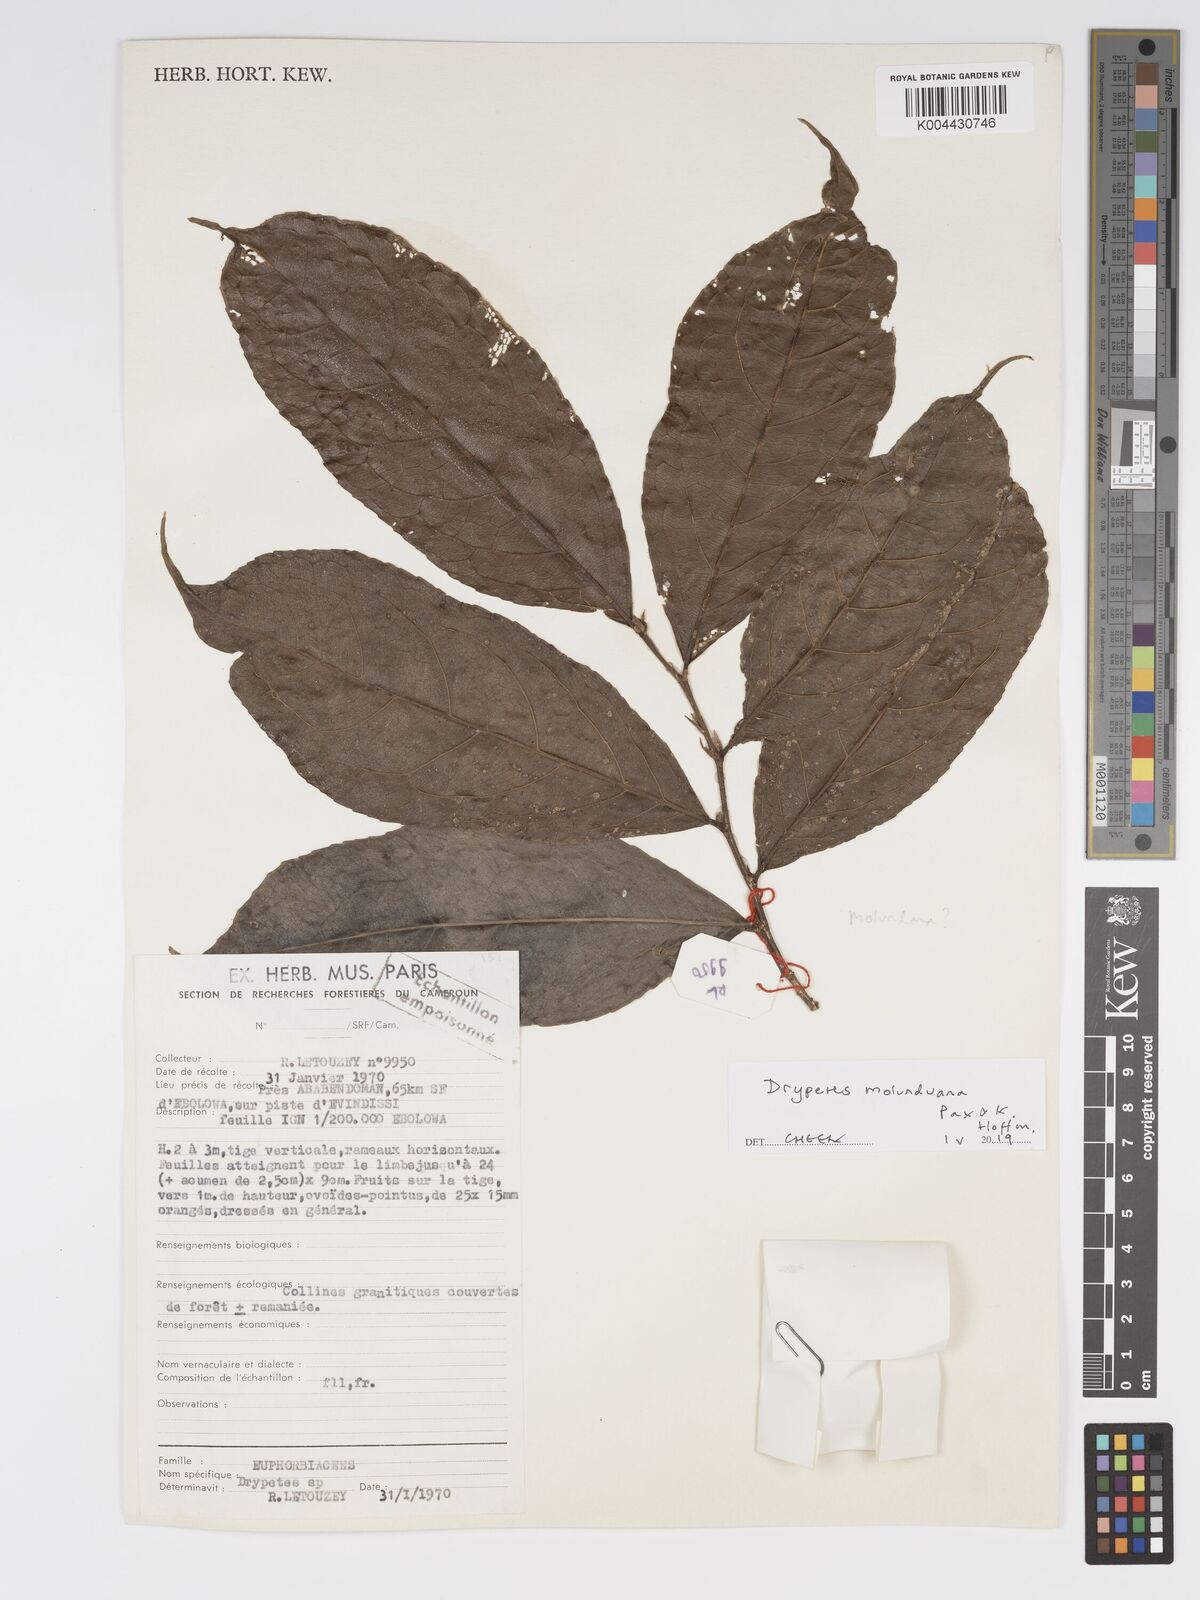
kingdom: Plantae
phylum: Tracheophyta
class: Magnoliopsida
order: Malpighiales
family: Putranjivaceae
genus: Drypetes
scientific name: Drypetes molunduana
